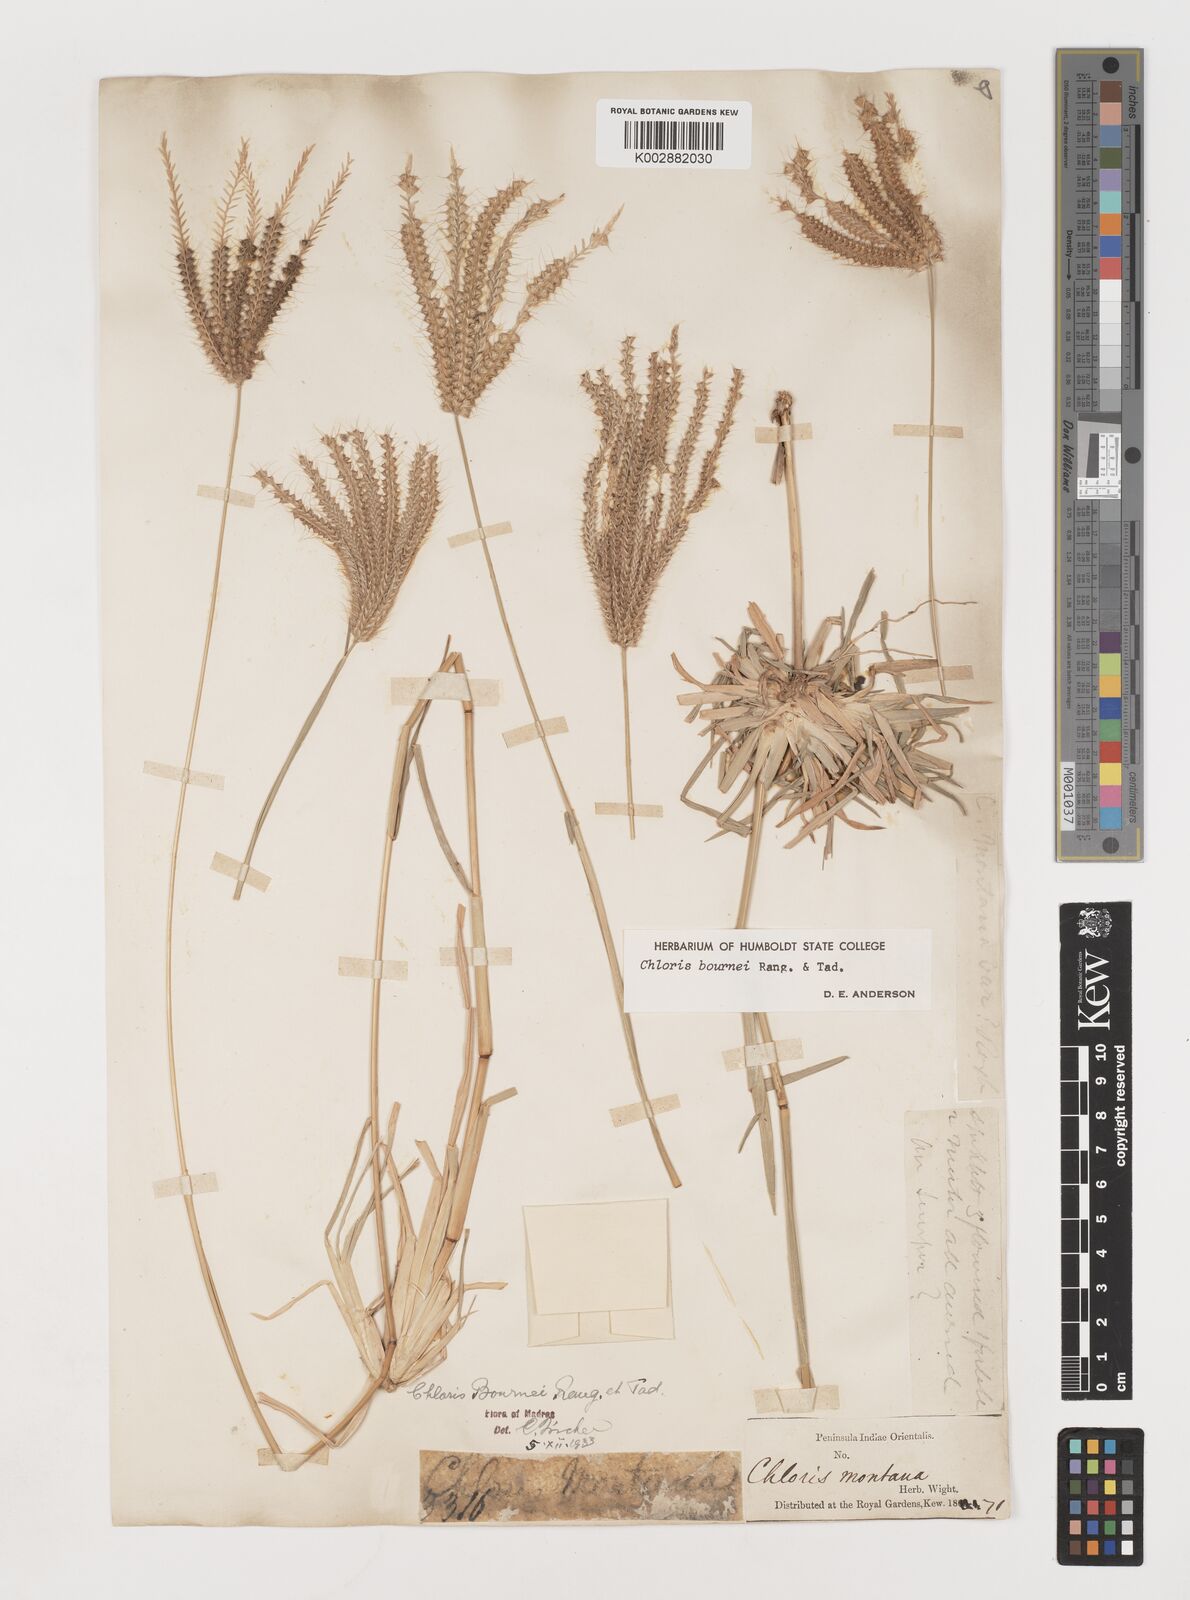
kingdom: Plantae
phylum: Tracheophyta
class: Liliopsida
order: Poales
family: Poaceae
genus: Chloris
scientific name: Chloris bournei
